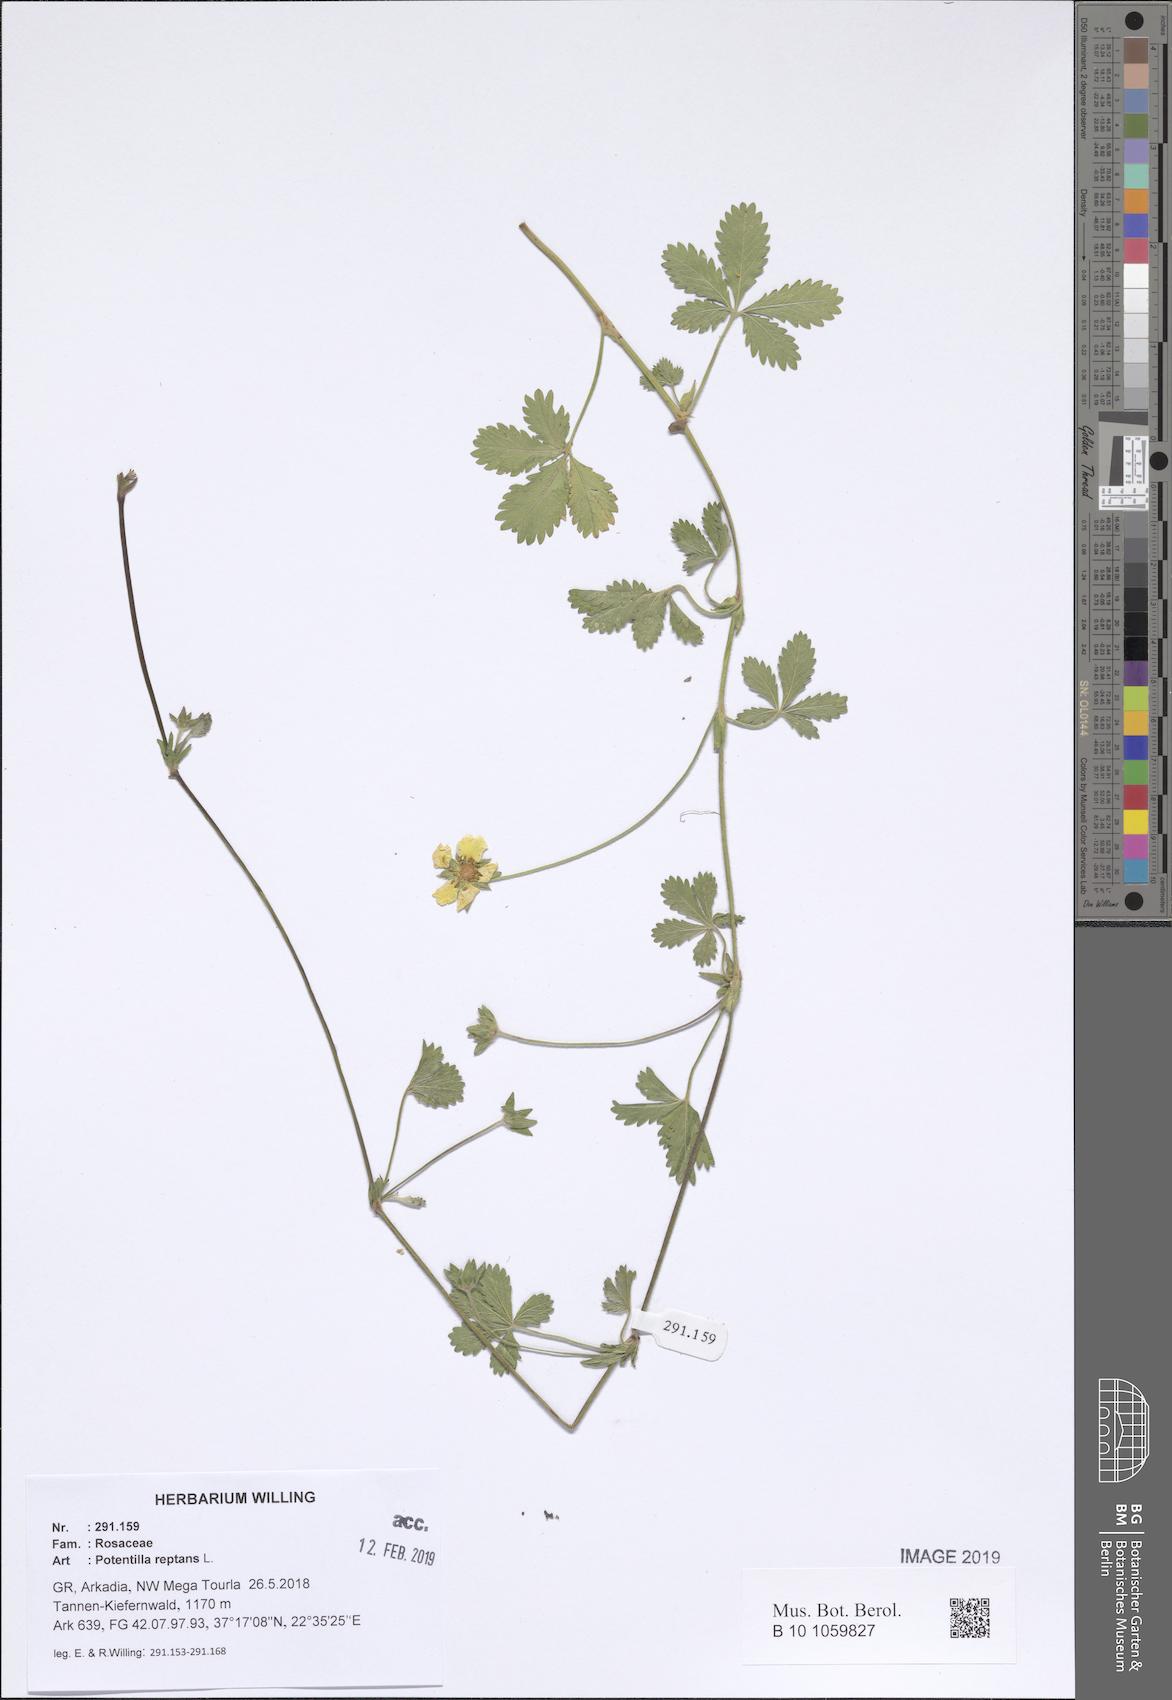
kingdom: Plantae
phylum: Tracheophyta
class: Magnoliopsida
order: Rosales
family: Rosaceae
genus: Potentilla
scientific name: Potentilla reptans
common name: Creeping cinquefoil
